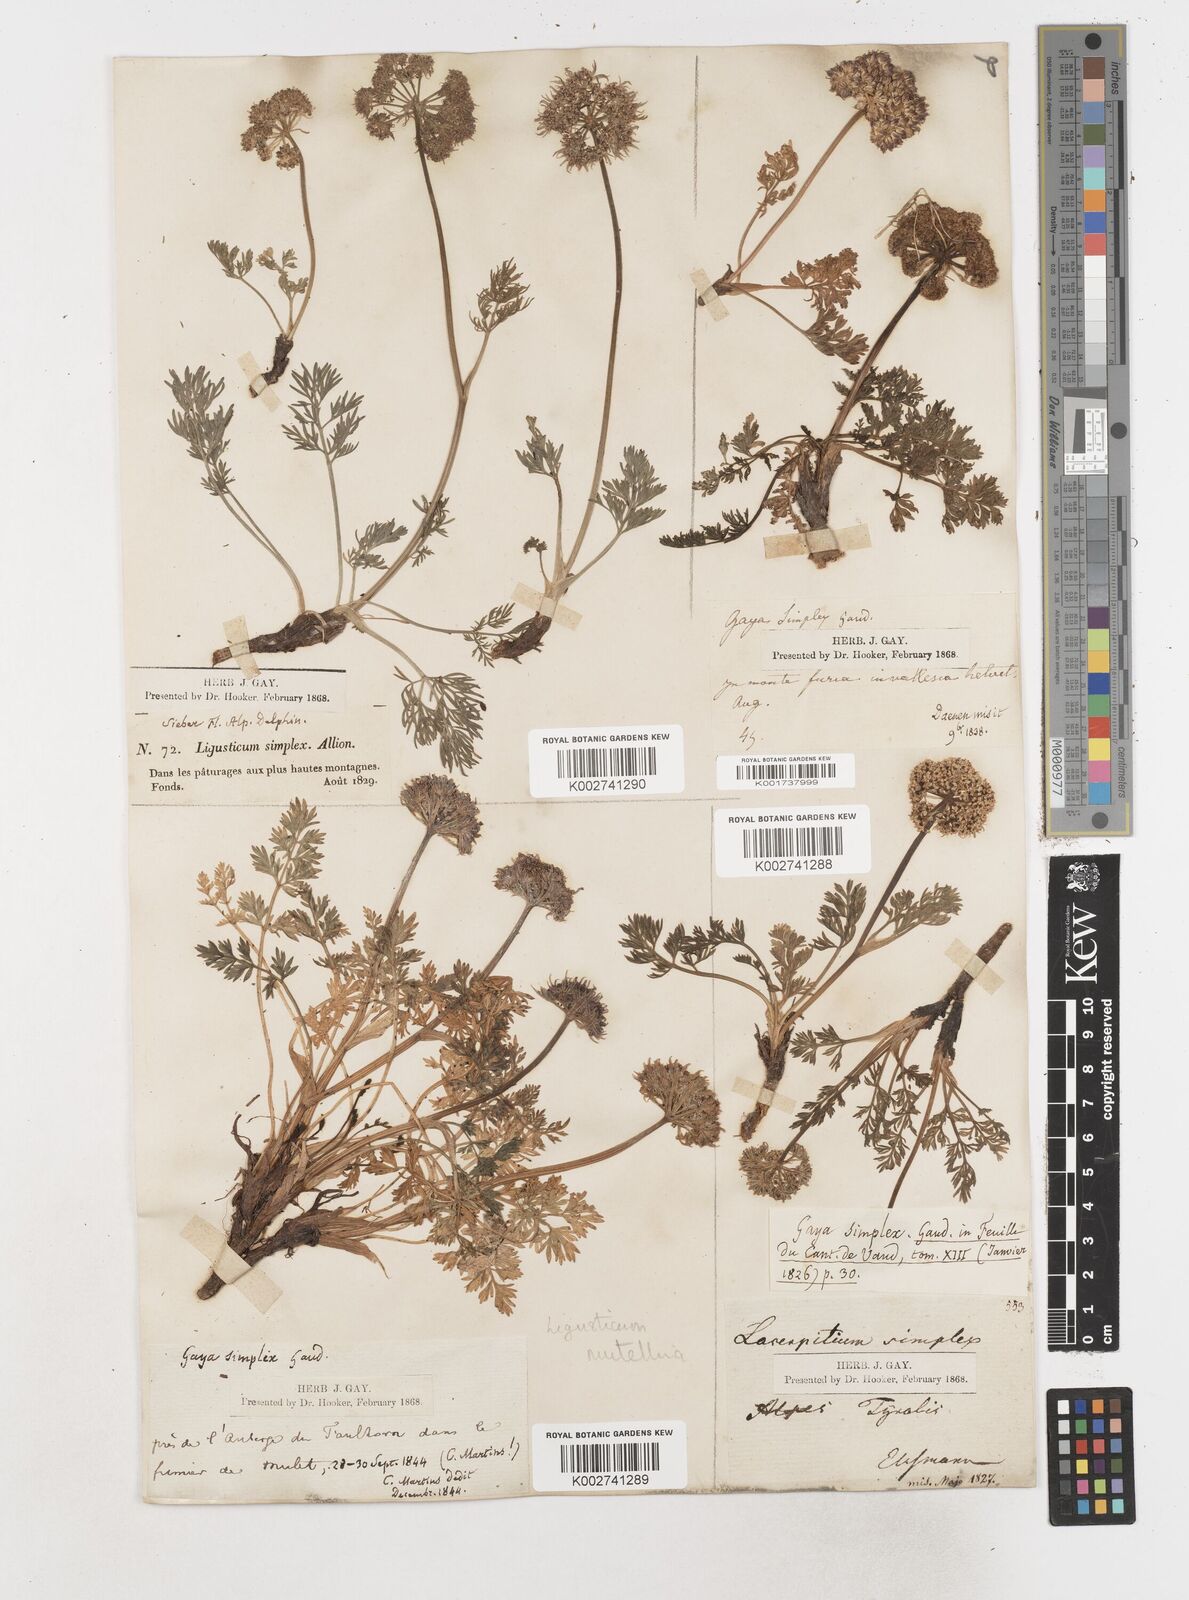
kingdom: Plantae
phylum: Tracheophyta
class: Magnoliopsida
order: Apiales
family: Apiaceae
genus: Mutellina
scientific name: Mutellina adonidifolia
